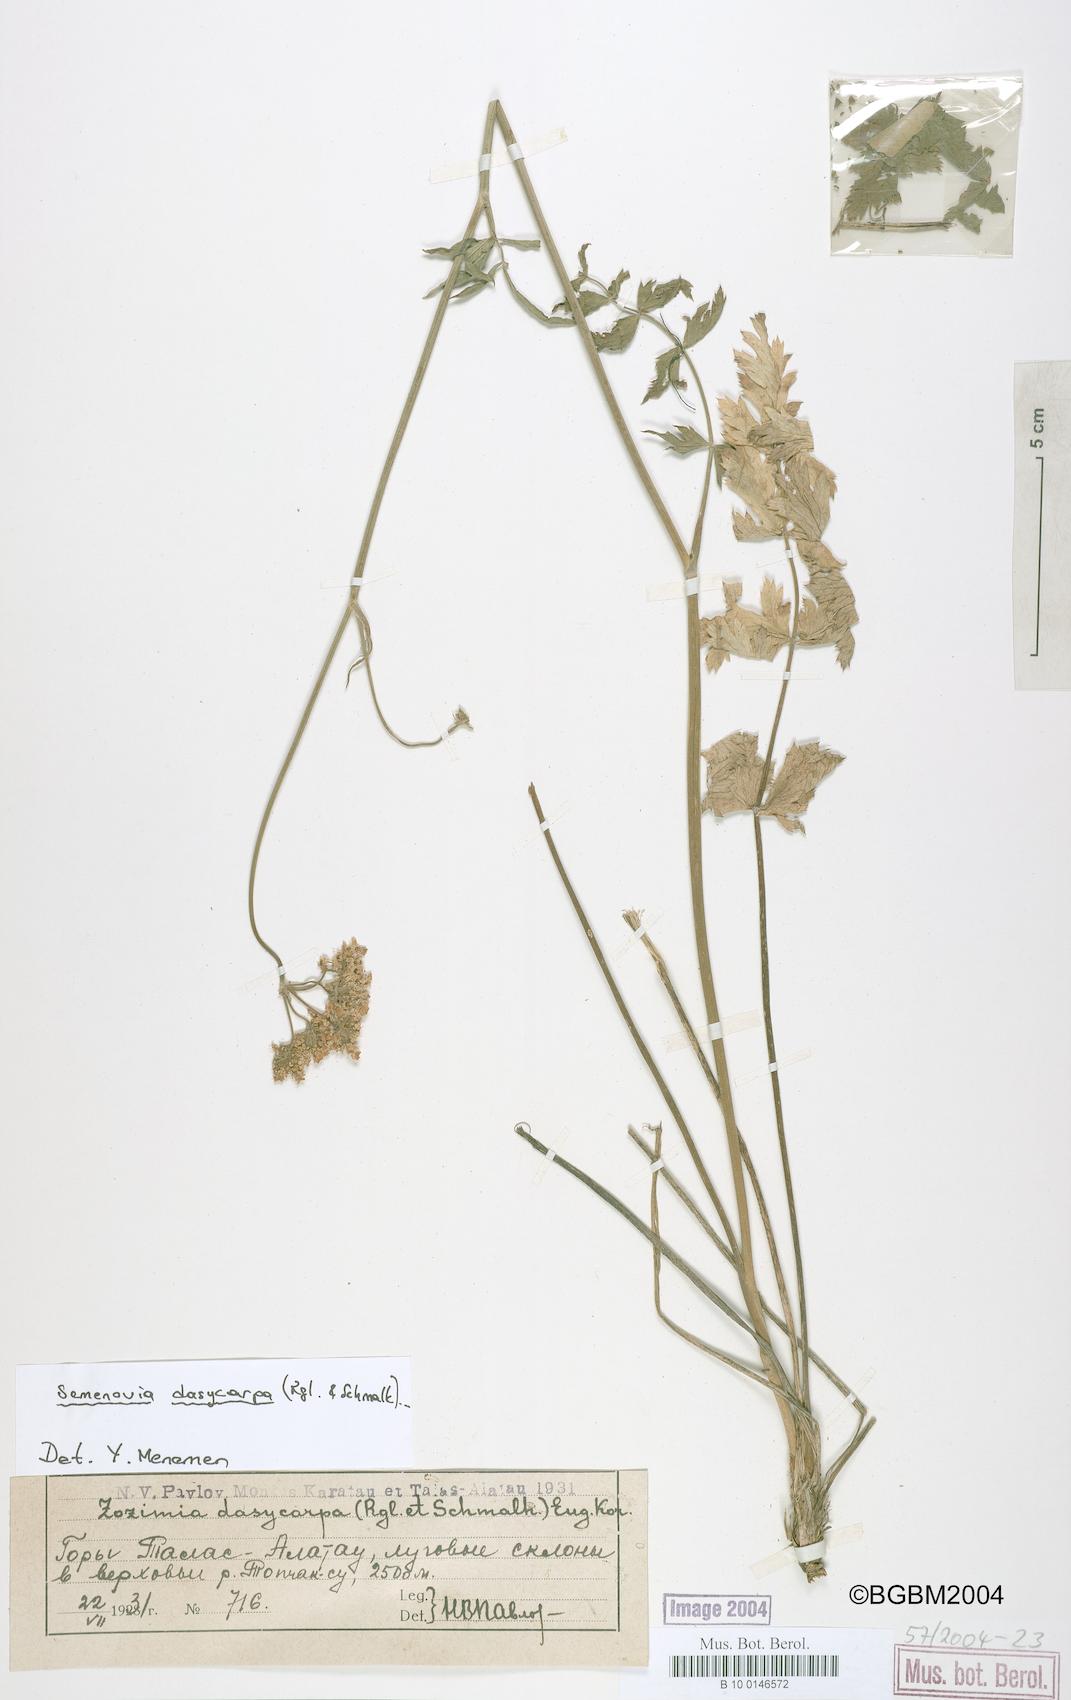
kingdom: Plantae
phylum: Tracheophyta
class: Magnoliopsida
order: Apiales
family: Apiaceae
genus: Semenovia
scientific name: Semenovia dasycarpa
